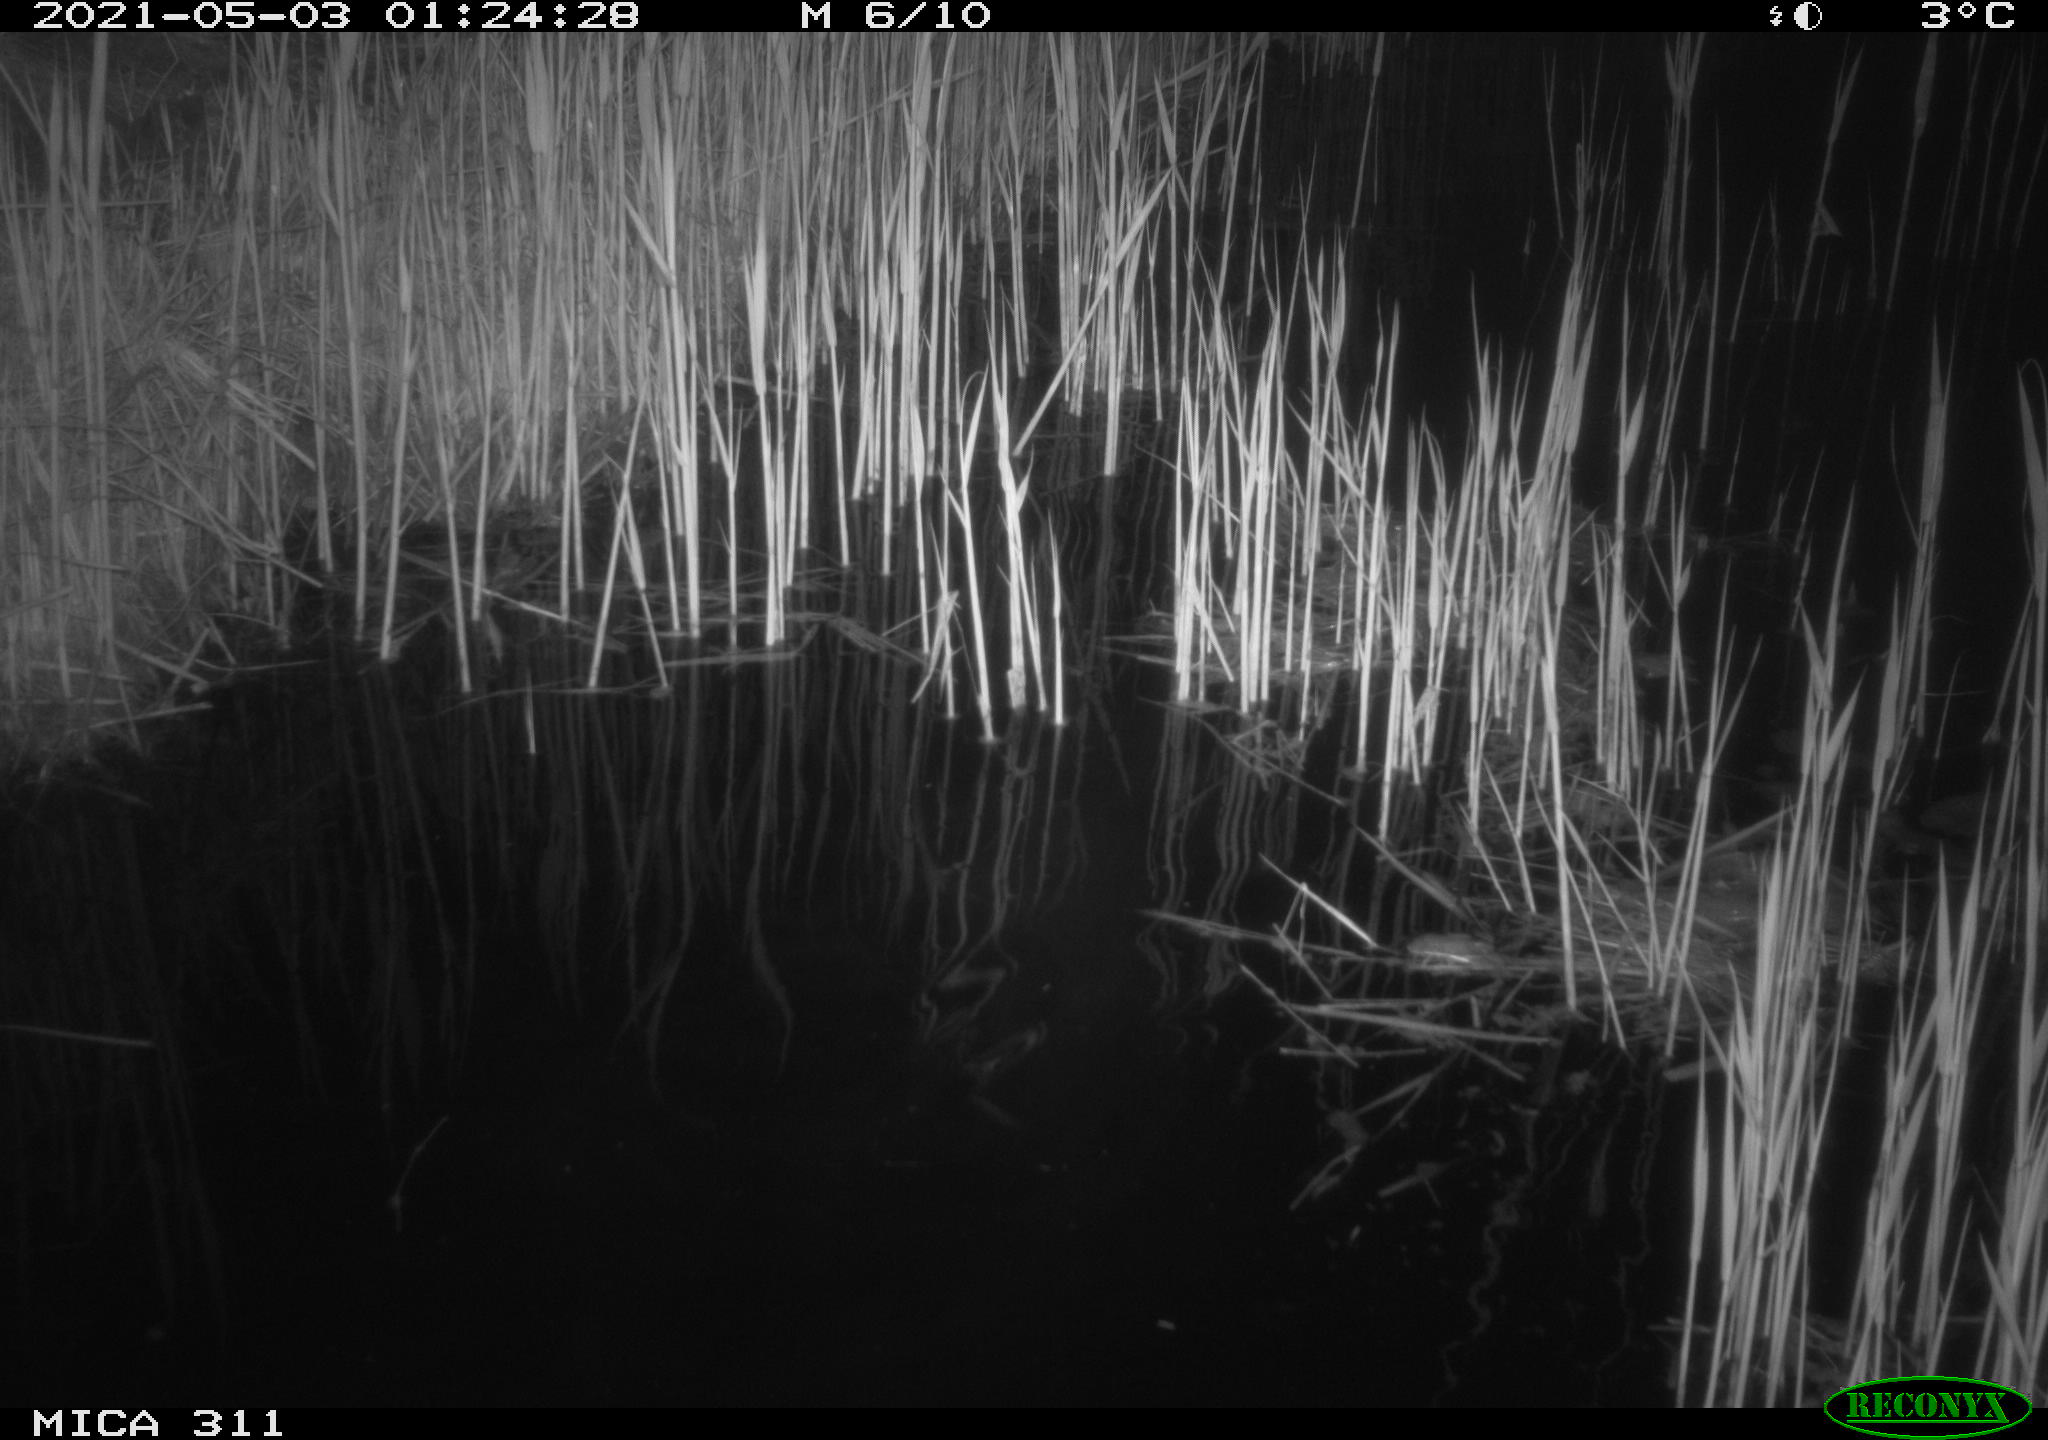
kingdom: Animalia
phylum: Chordata
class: Mammalia
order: Rodentia
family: Cricetidae
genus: Ondatra
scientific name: Ondatra zibethicus
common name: Muskrat
